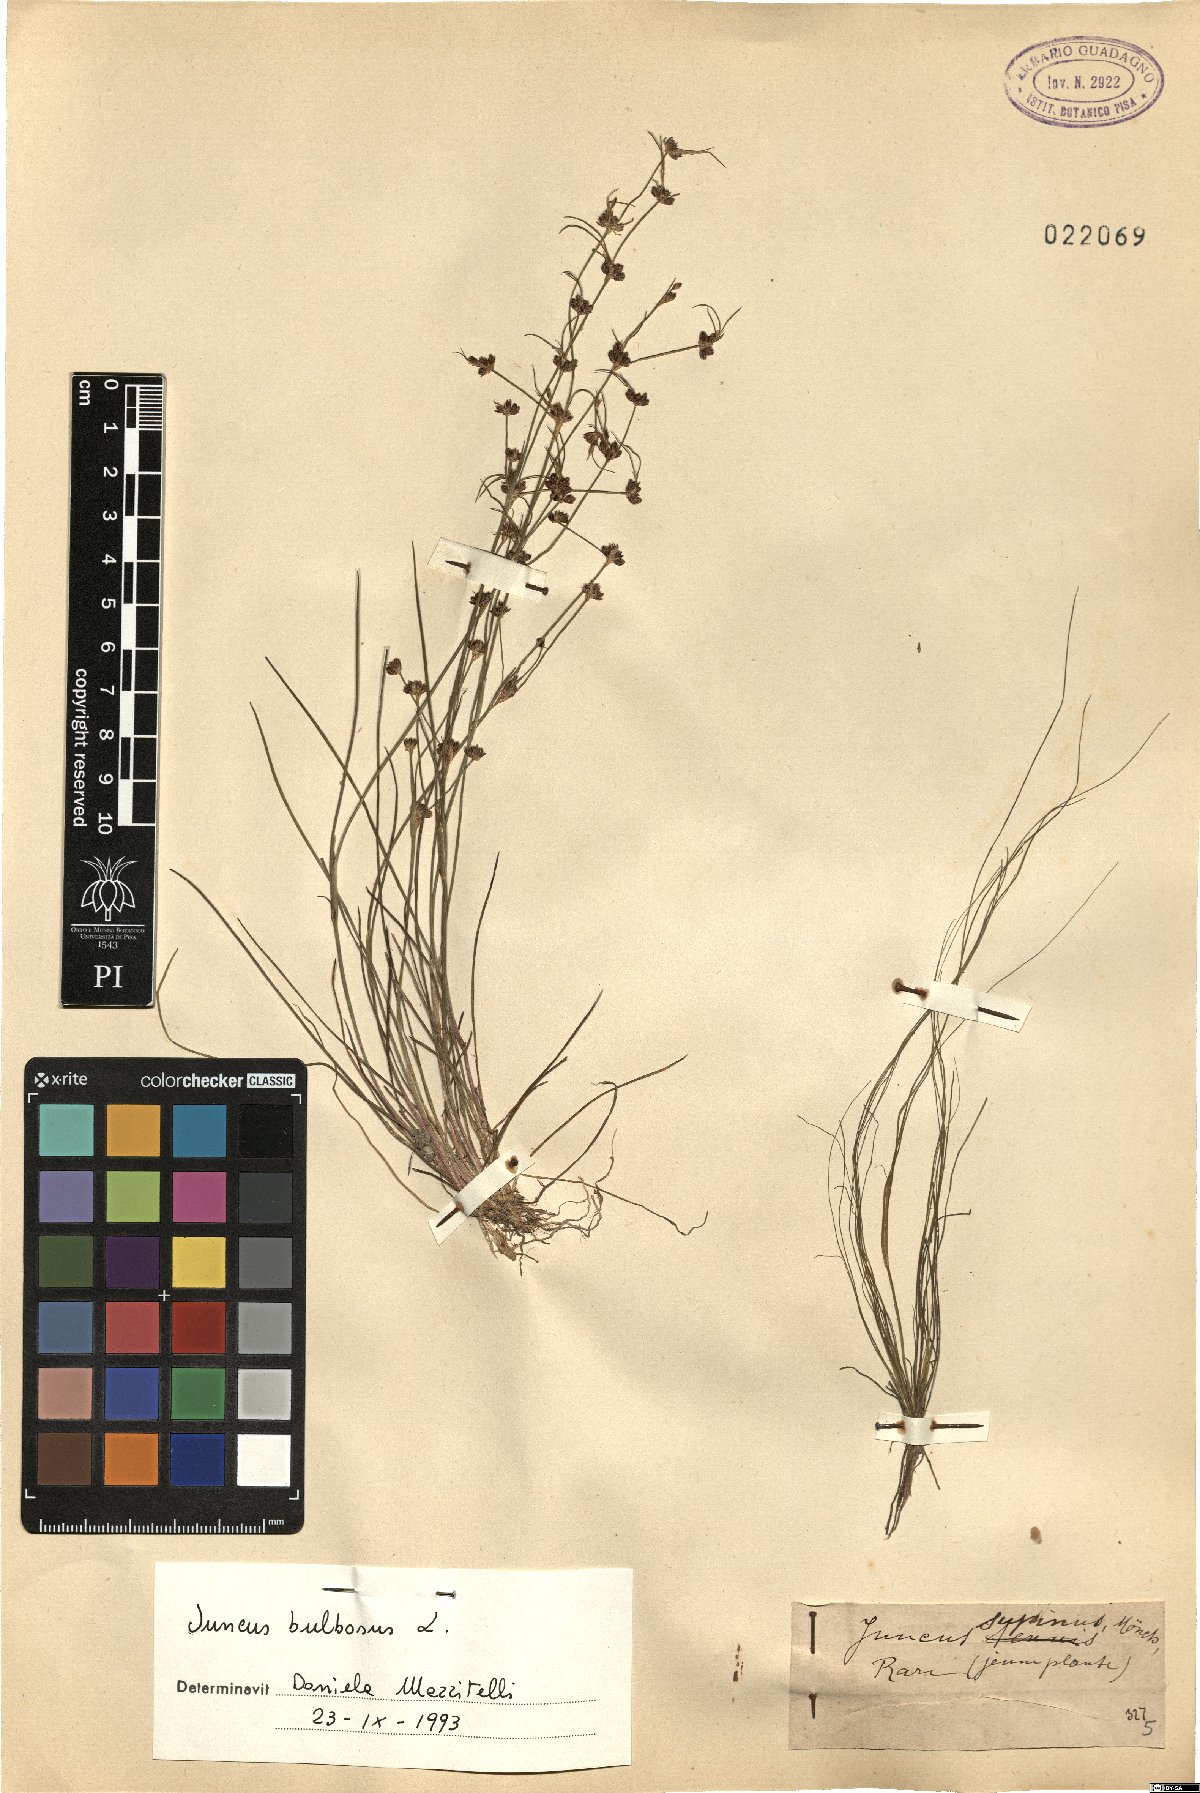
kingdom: Plantae
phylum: Tracheophyta
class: Liliopsida
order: Poales
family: Juncaceae
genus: Juncus
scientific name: Juncus bulbosus
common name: Bulbous rush
